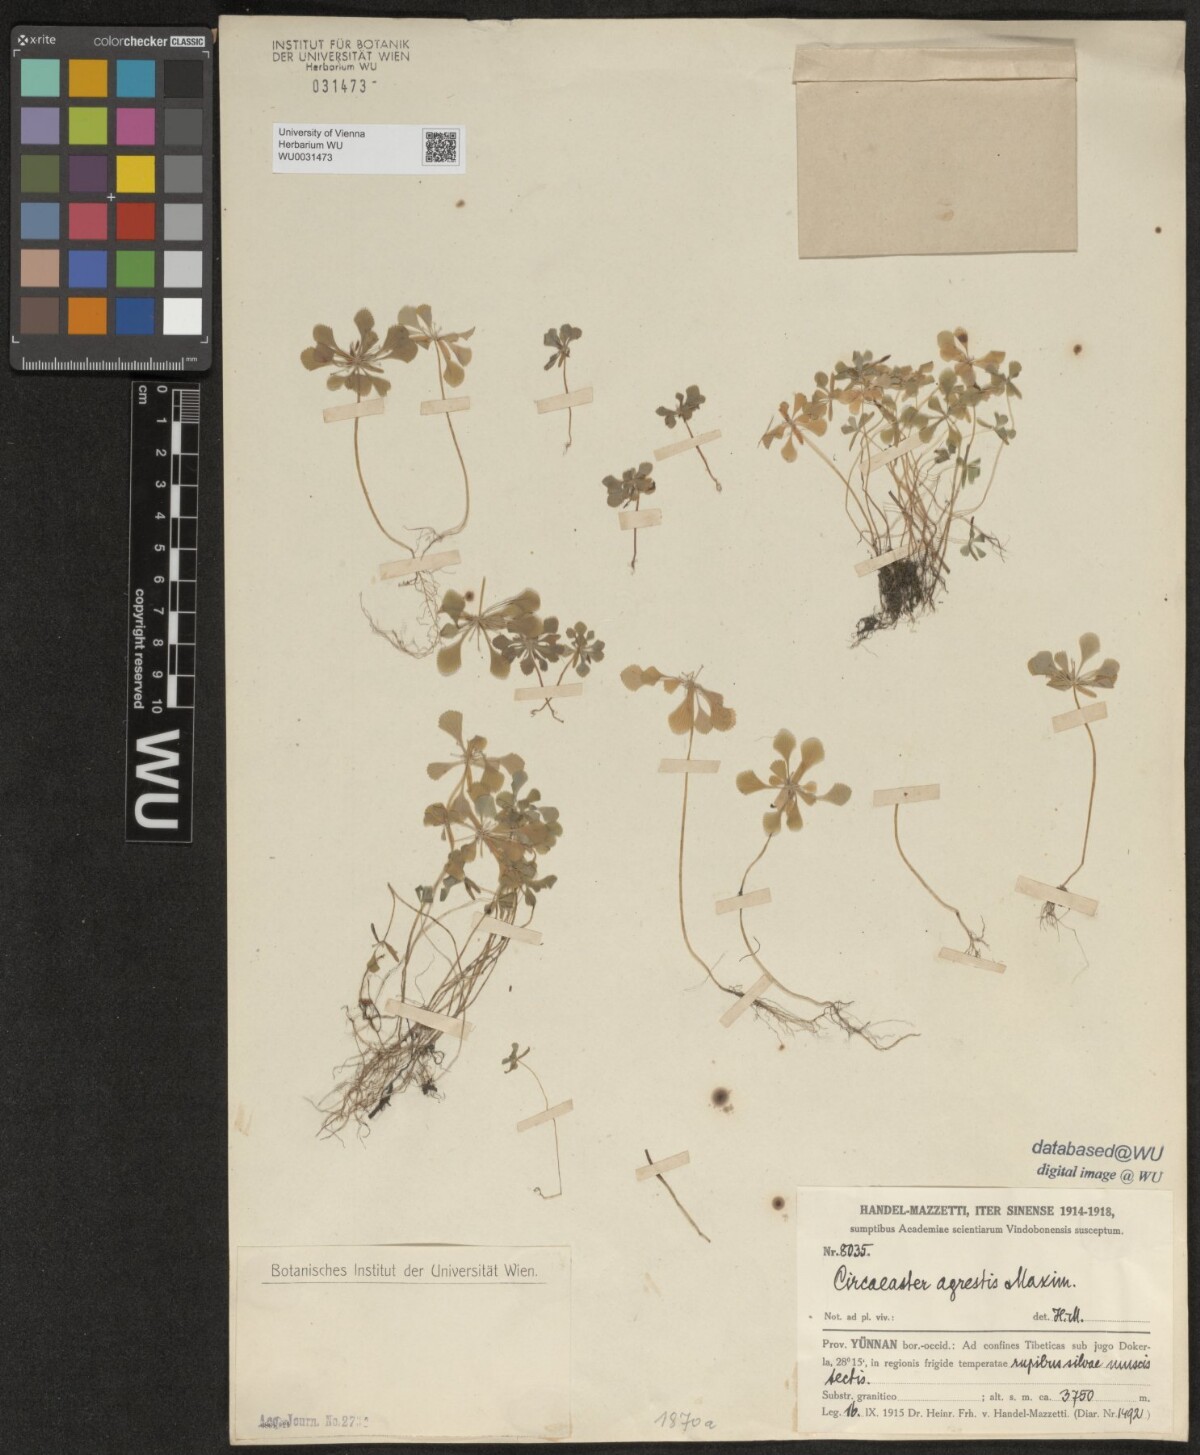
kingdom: Plantae
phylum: Tracheophyta
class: Magnoliopsida
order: Ranunculales
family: Circaeasteraceae
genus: Circaeaster
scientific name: Circaeaster agrestis
